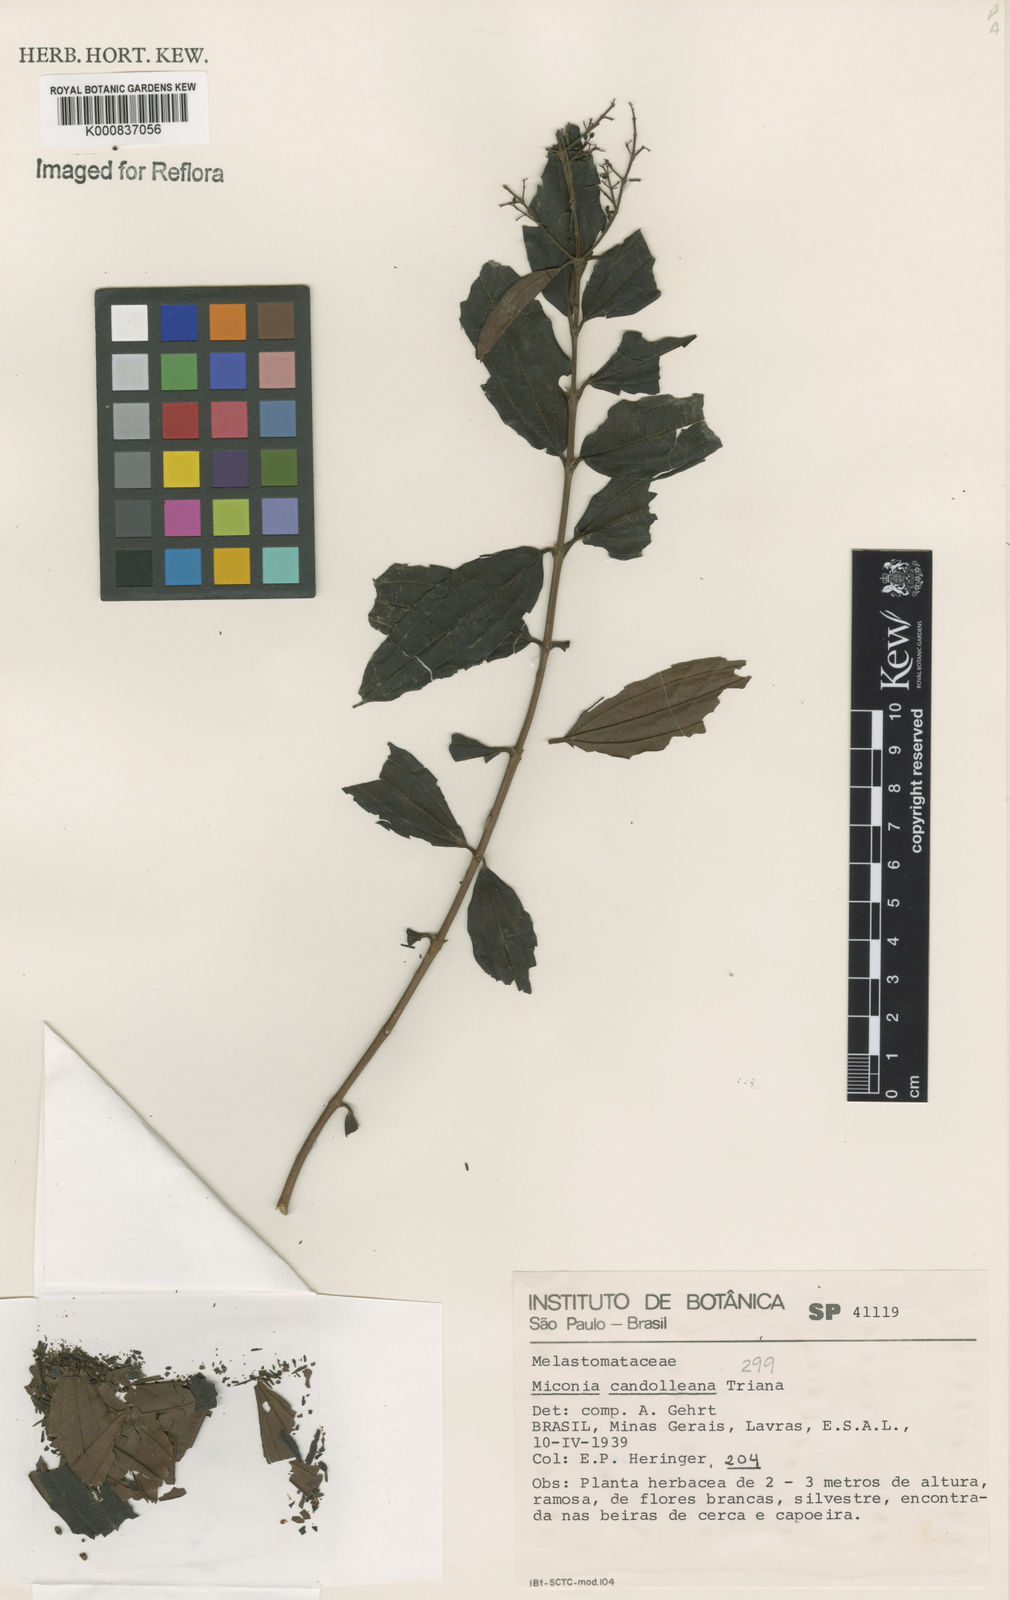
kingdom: Plantae
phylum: Tracheophyta
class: Magnoliopsida
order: Myrtales
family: Melastomataceae
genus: Miconia
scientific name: Miconia cinnamomifolia
